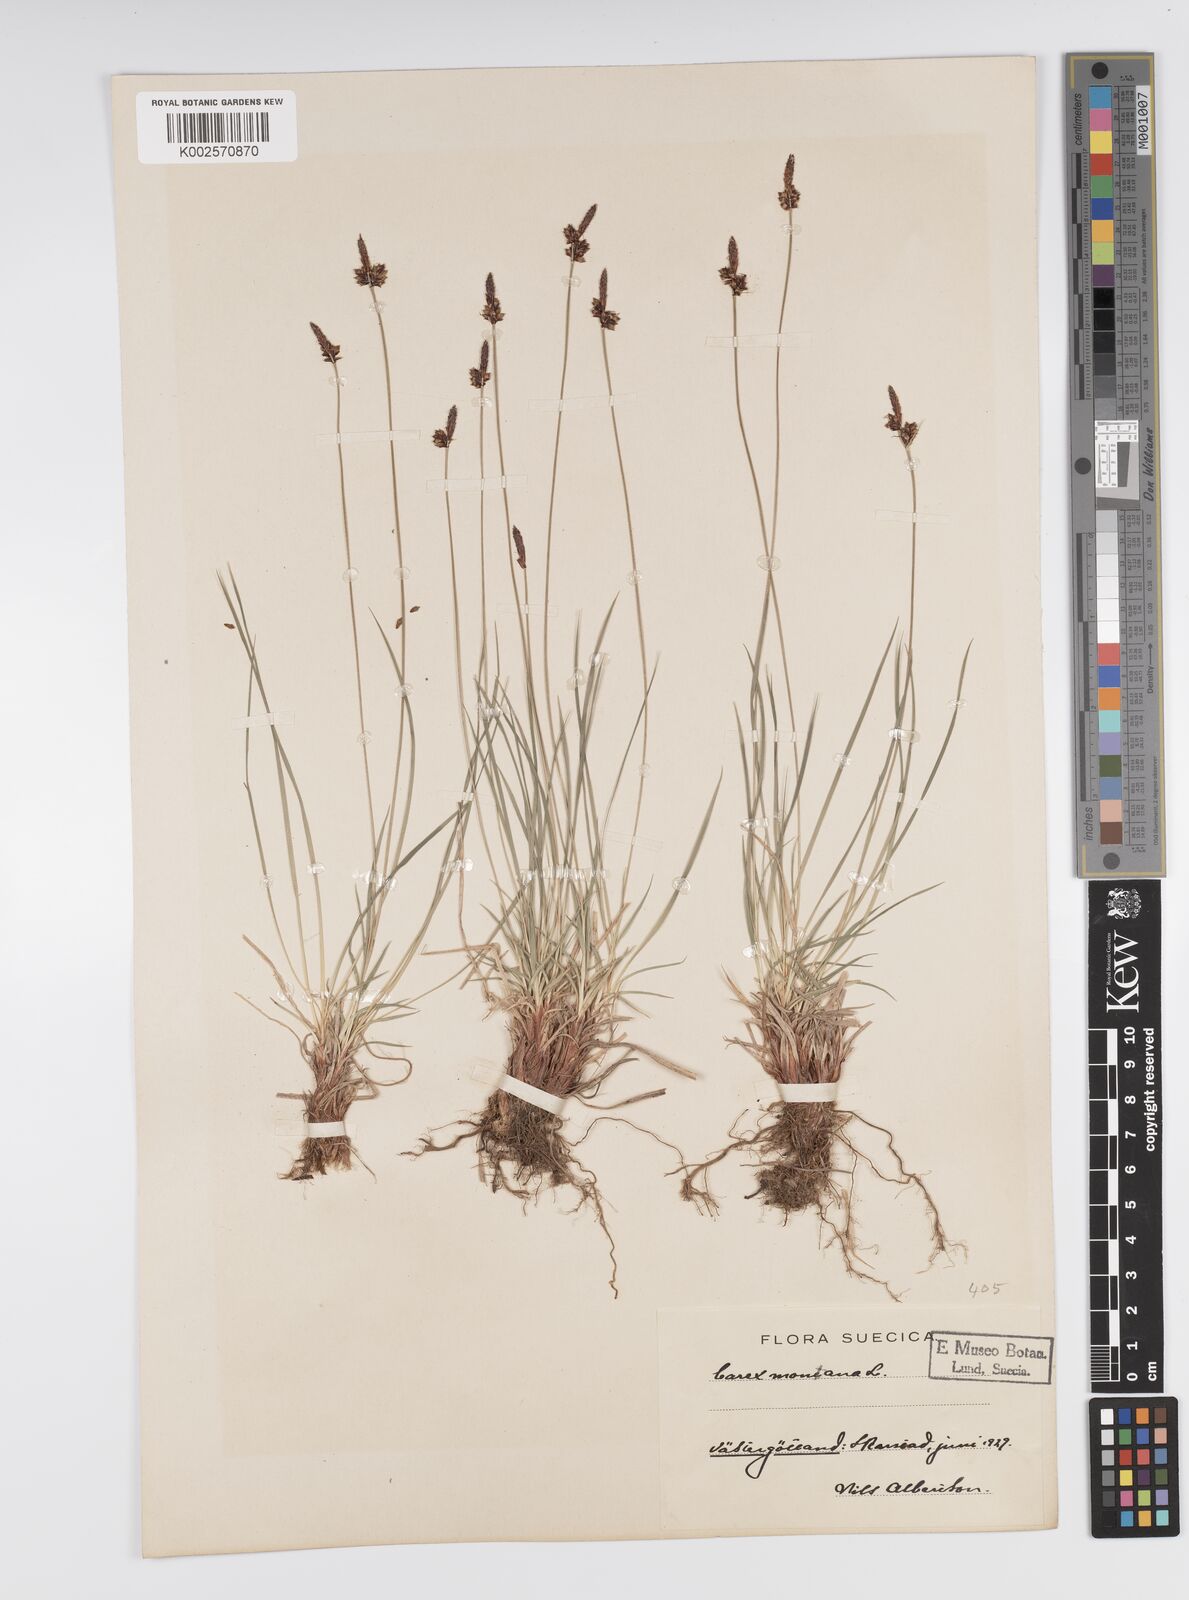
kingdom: Plantae
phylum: Tracheophyta
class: Liliopsida
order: Poales
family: Cyperaceae
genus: Carex
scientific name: Carex montana
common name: Soft-leaved sedge
